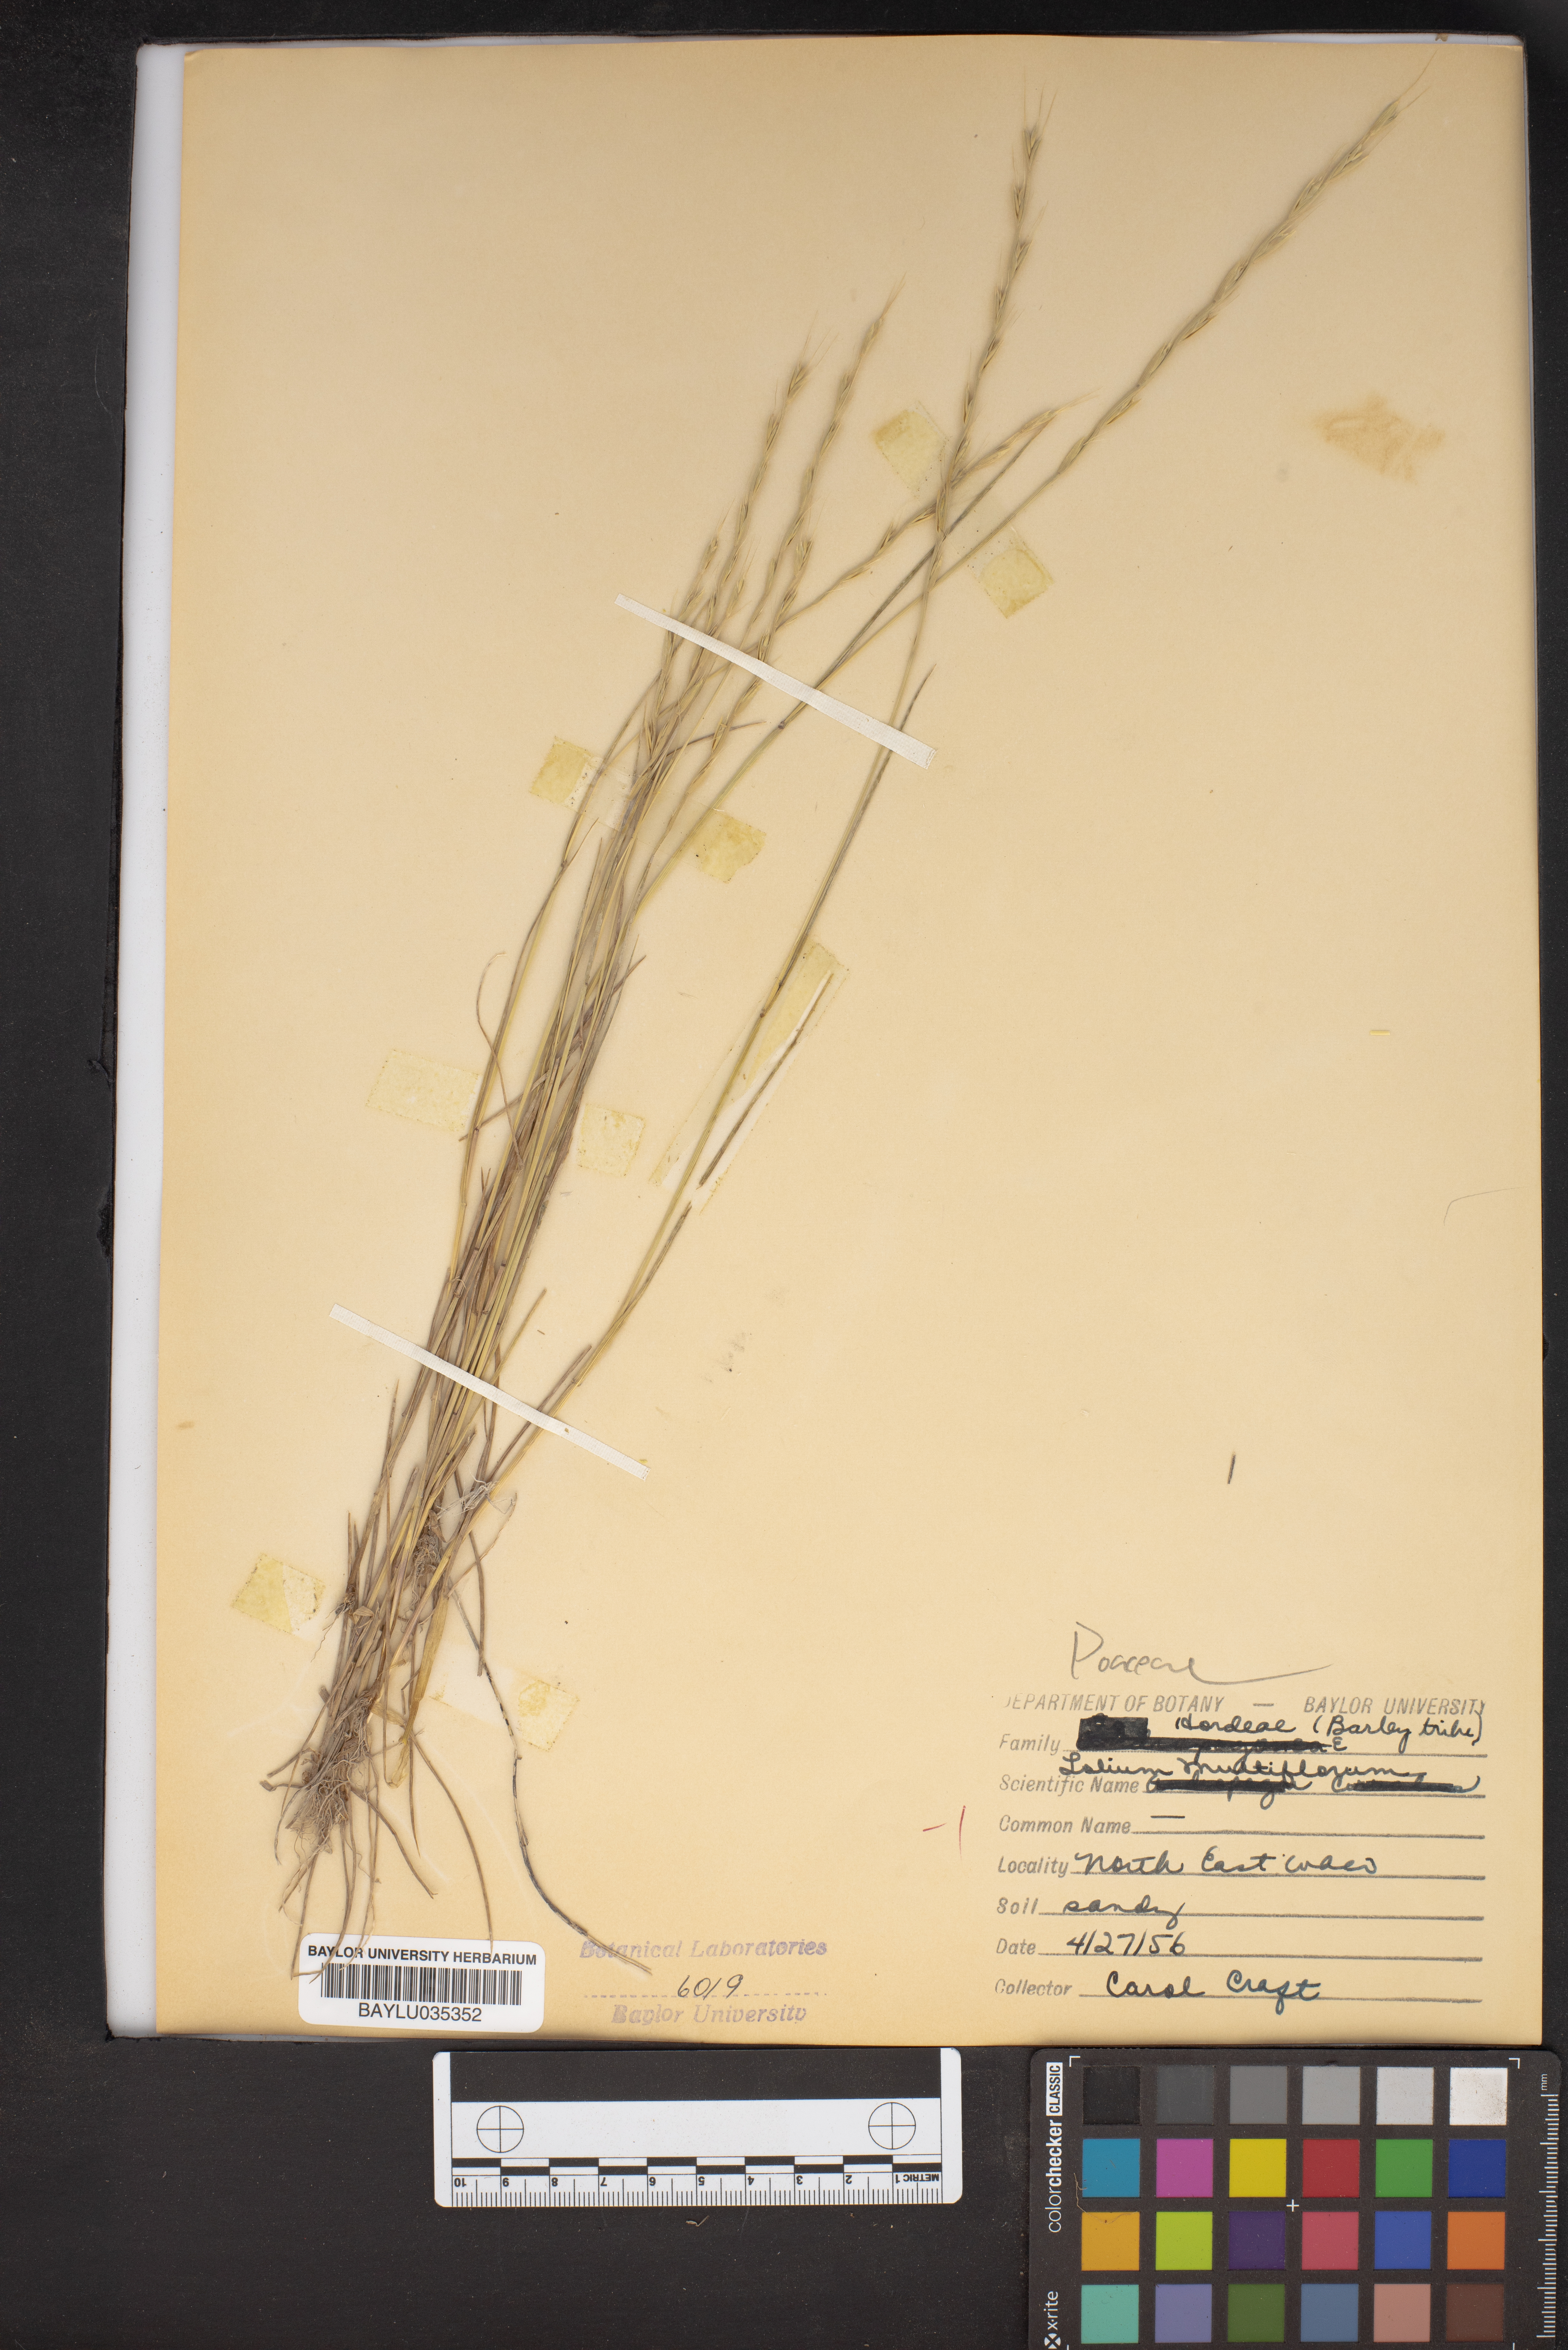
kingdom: Plantae
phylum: Tracheophyta
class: Liliopsida
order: Poales
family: Poaceae
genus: Lolium
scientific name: Lolium multiflorum
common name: Annual ryegrass
